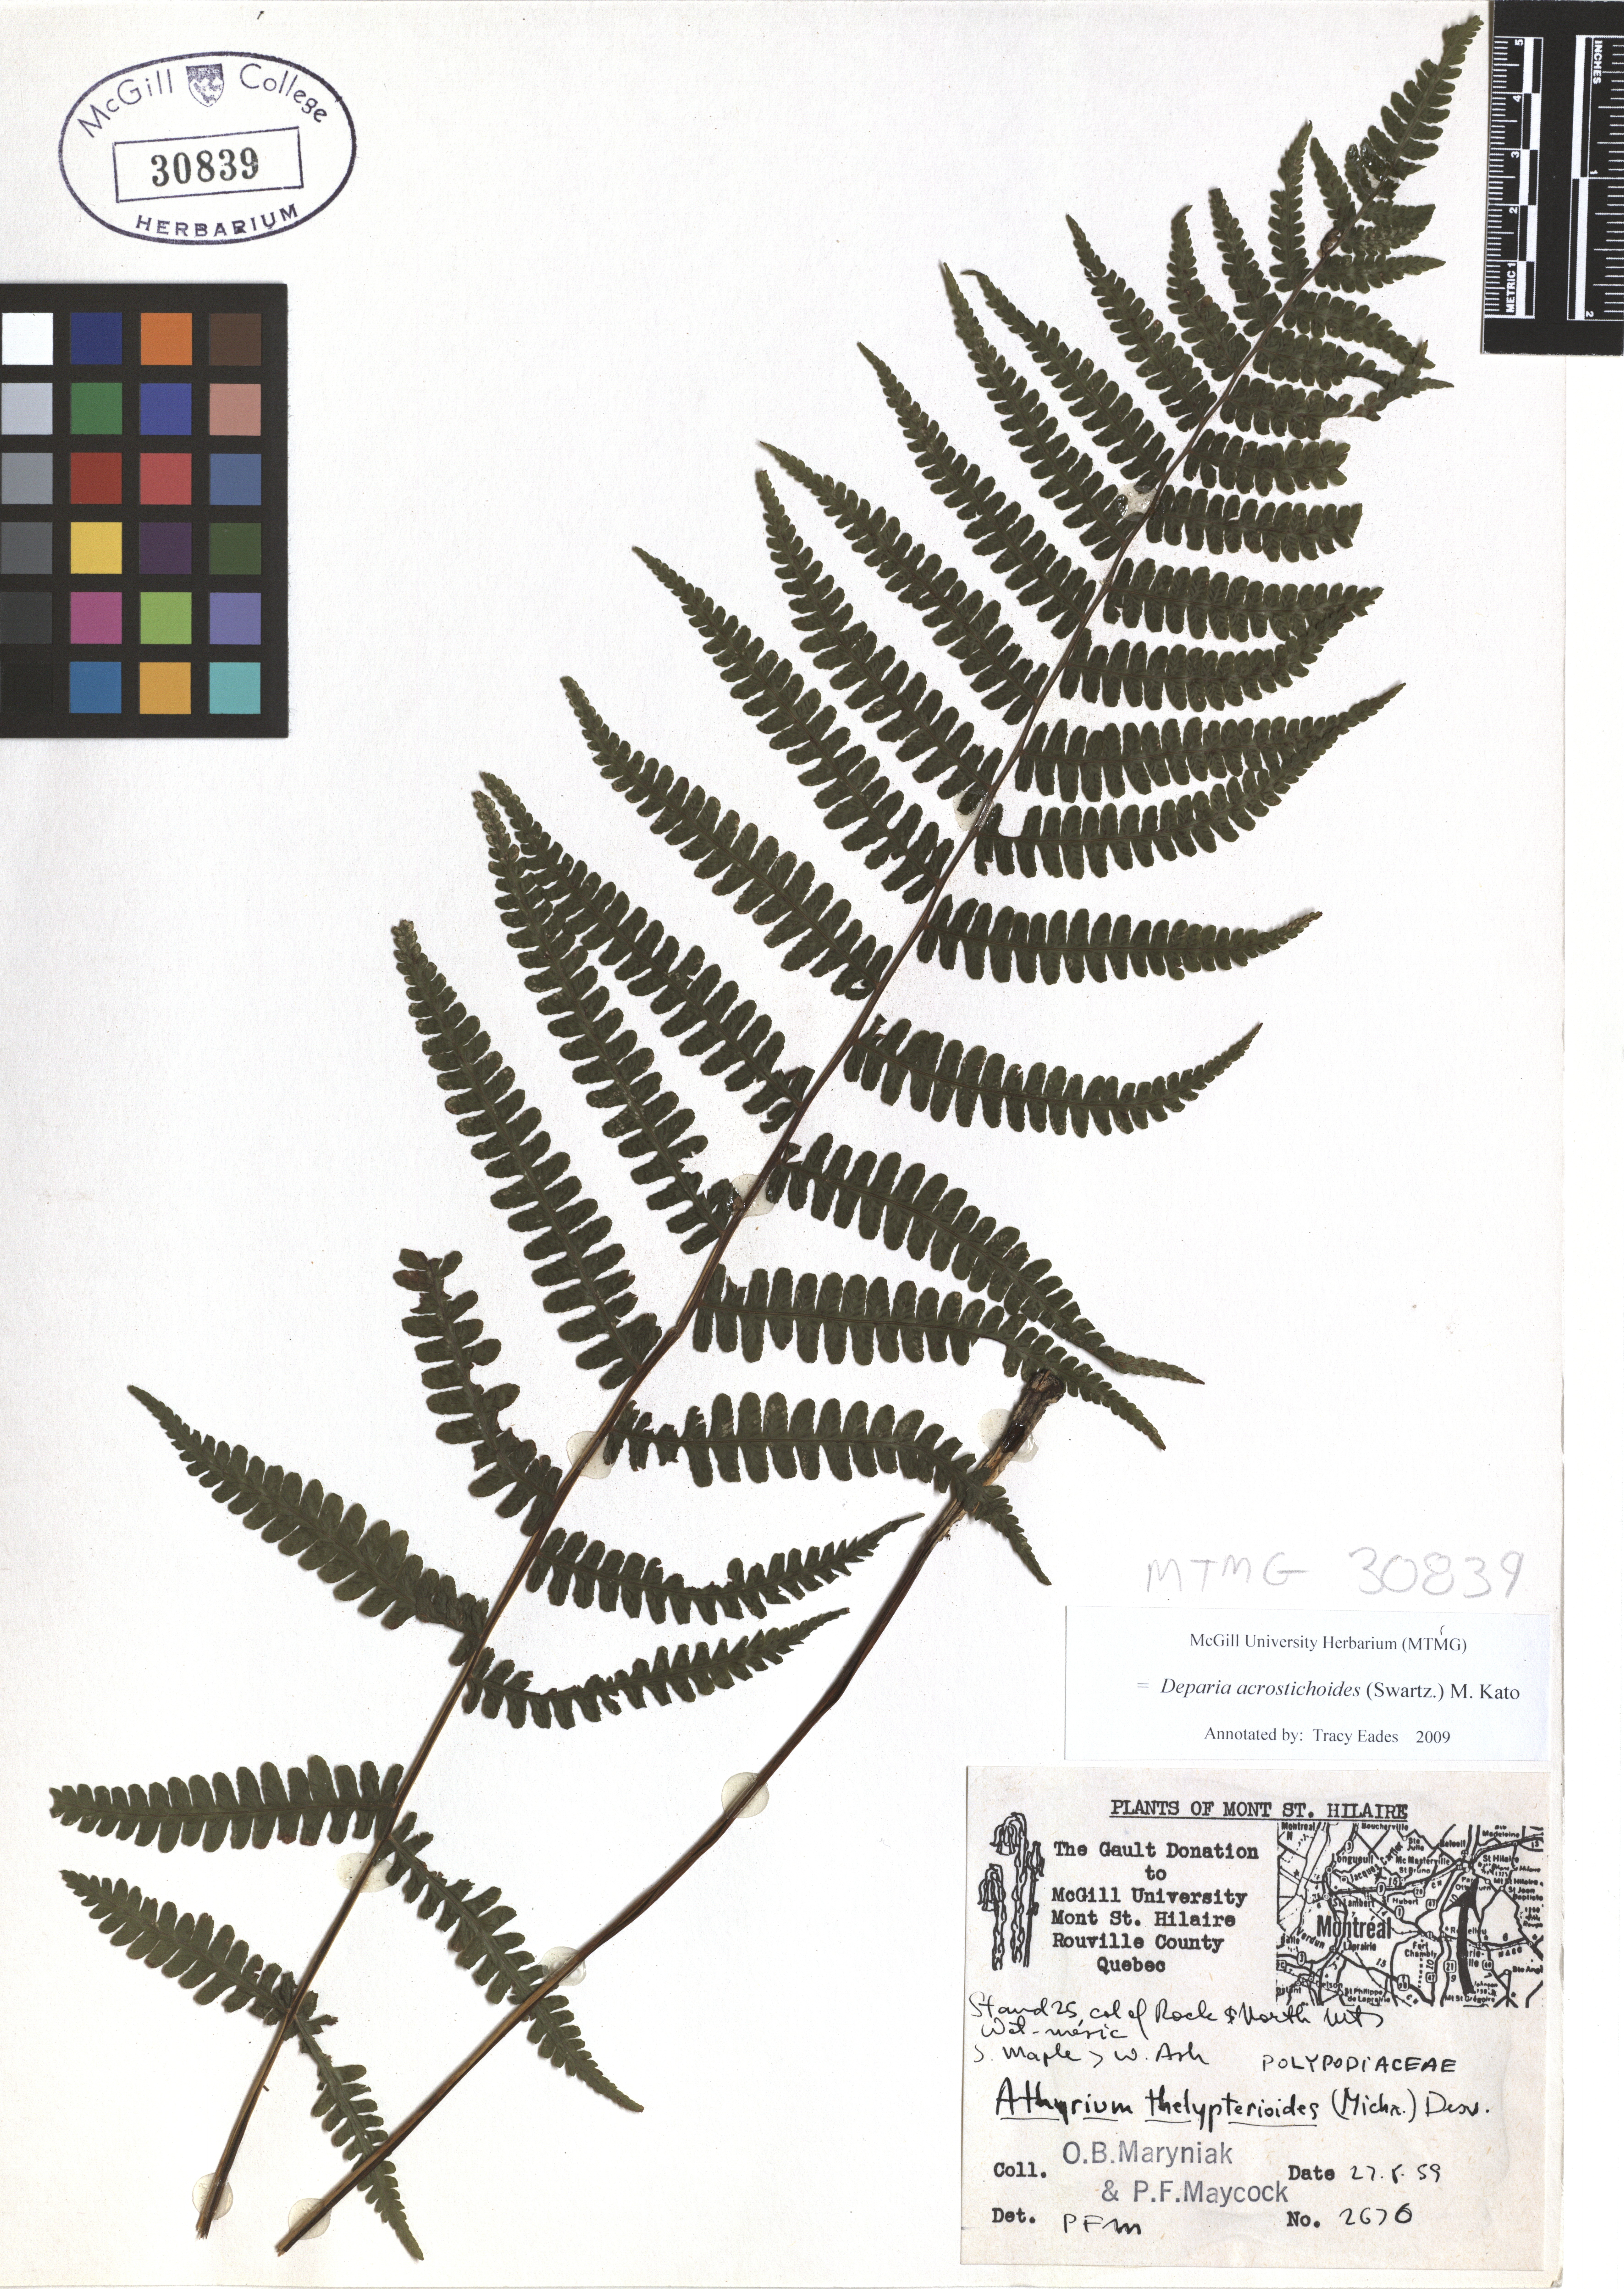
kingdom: Plantae
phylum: Tracheophyta
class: Polypodiopsida
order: Polypodiales
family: Athyriaceae
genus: Deparia
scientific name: Deparia acrostichoides
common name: Silver false spleenwort
